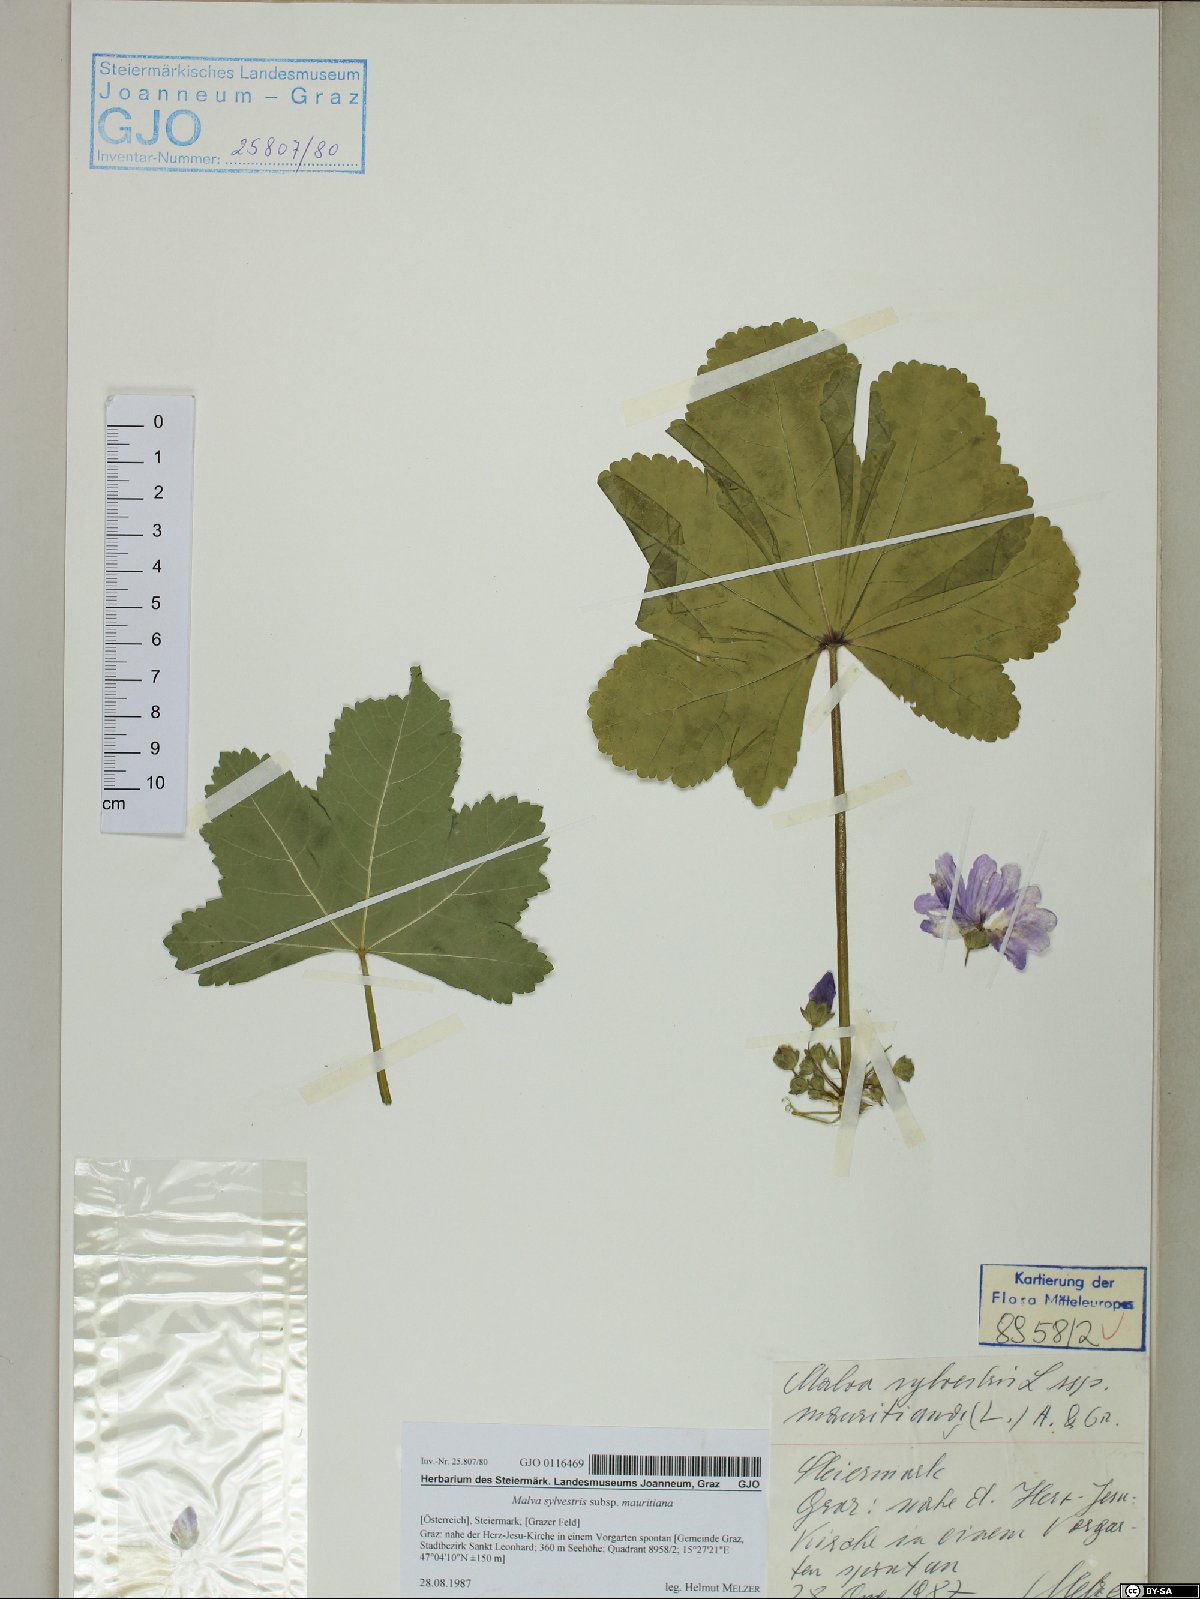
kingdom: Plantae
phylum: Tracheophyta
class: Magnoliopsida
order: Malvales
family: Malvaceae
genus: Malva
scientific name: Malva sylvestris
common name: Common mallow
